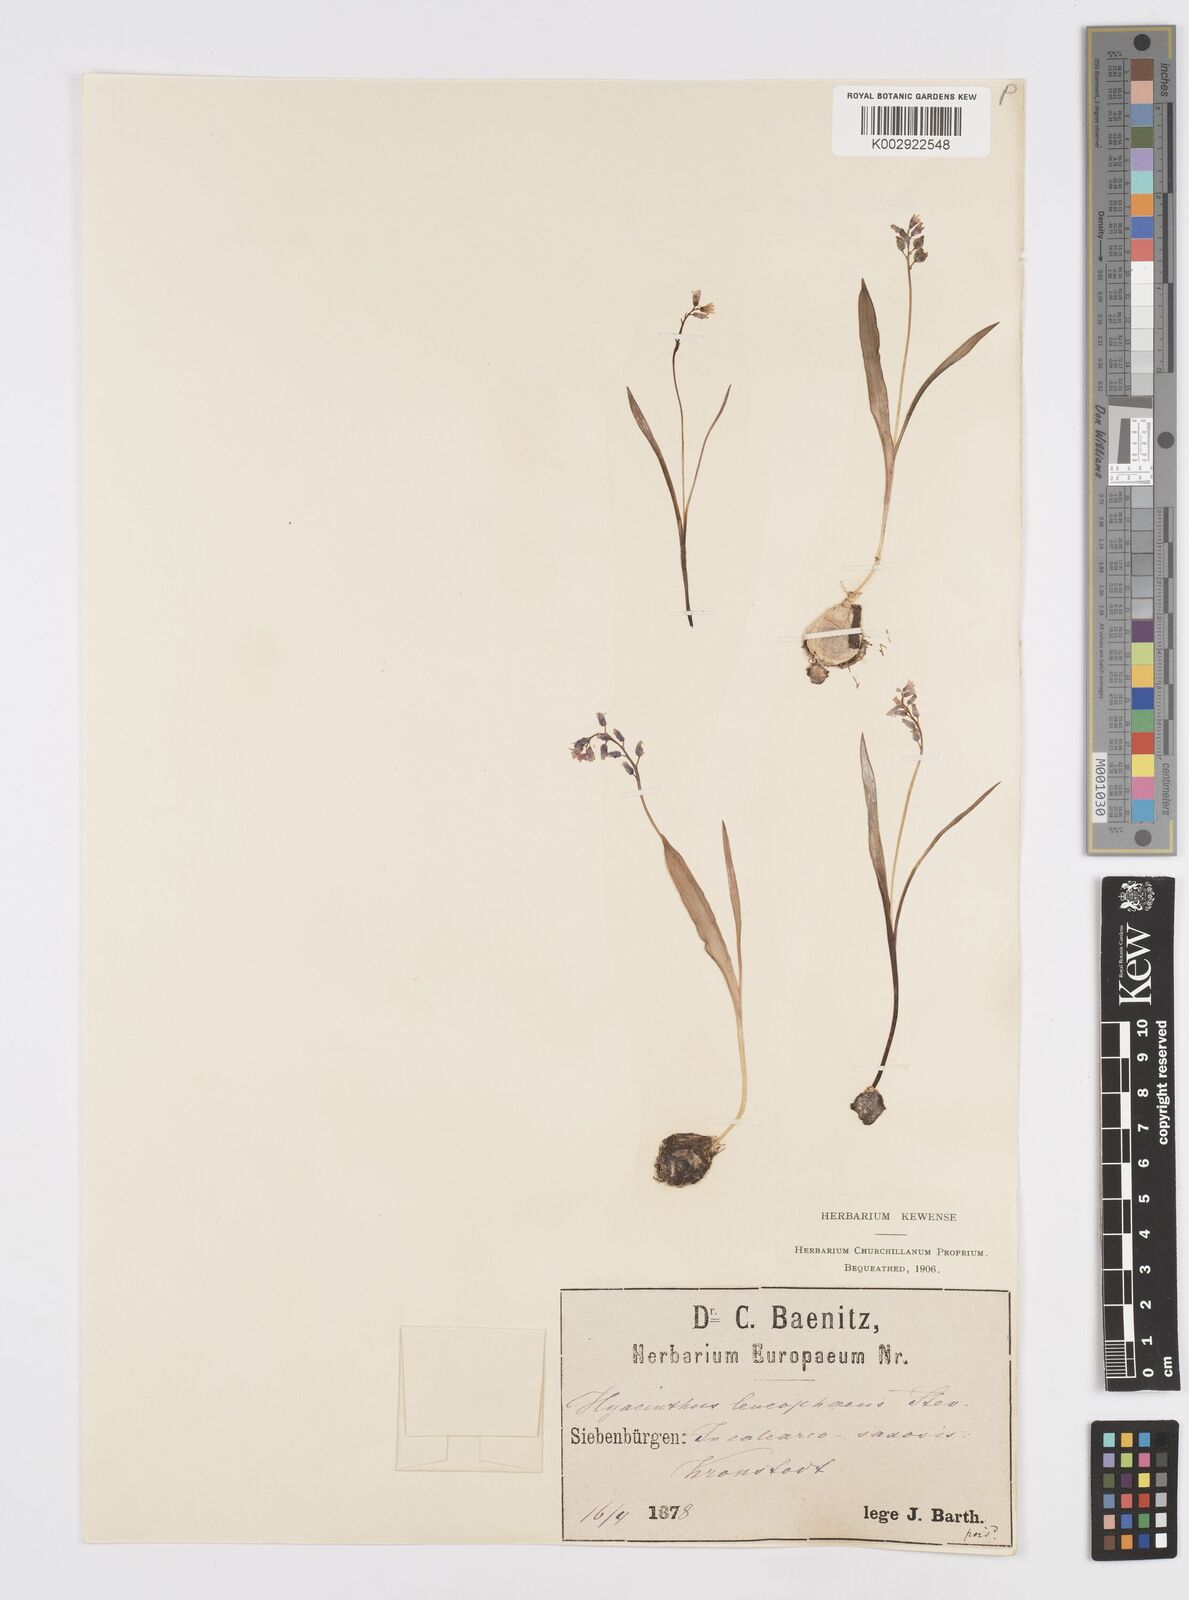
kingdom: Plantae
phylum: Tracheophyta
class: Liliopsida
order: Asparagales
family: Asparagaceae
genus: Hyacinthella
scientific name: Hyacinthella leucophaea
